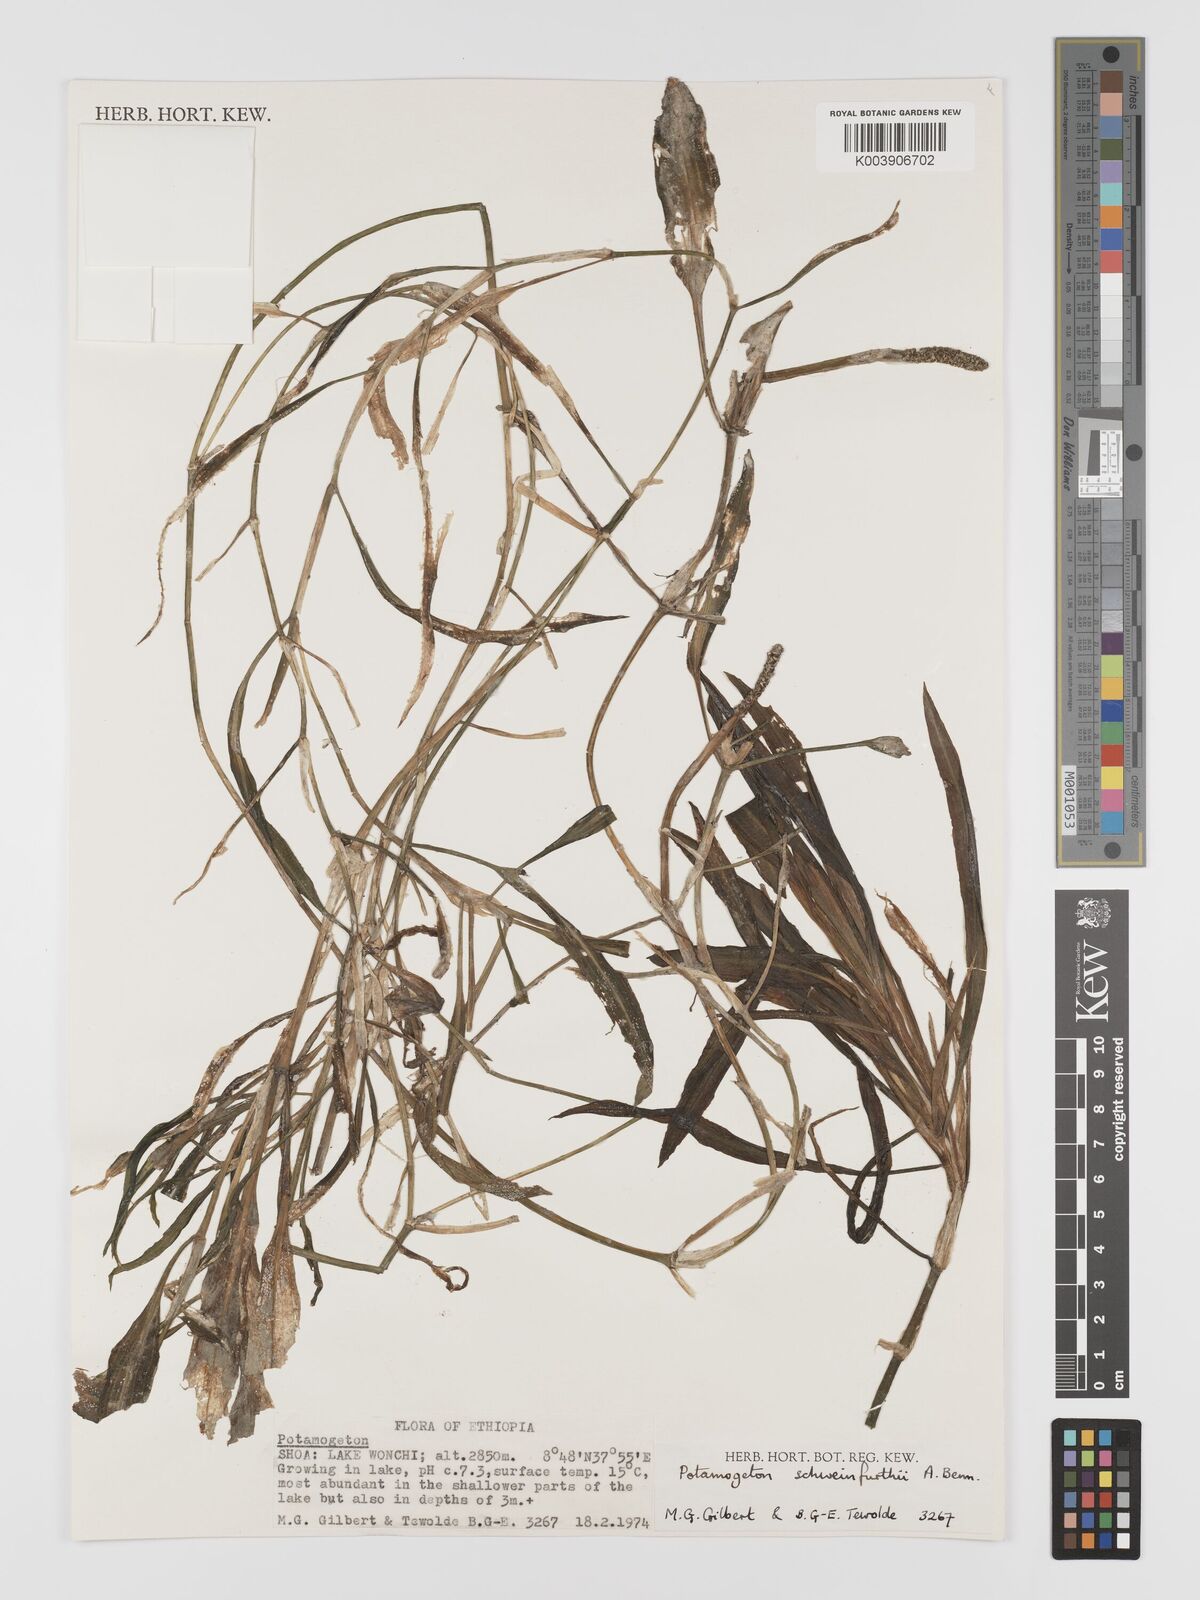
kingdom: Plantae
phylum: Tracheophyta
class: Liliopsida
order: Alismatales
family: Potamogetonaceae
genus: Potamogeton
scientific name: Potamogeton schweinfurthii
